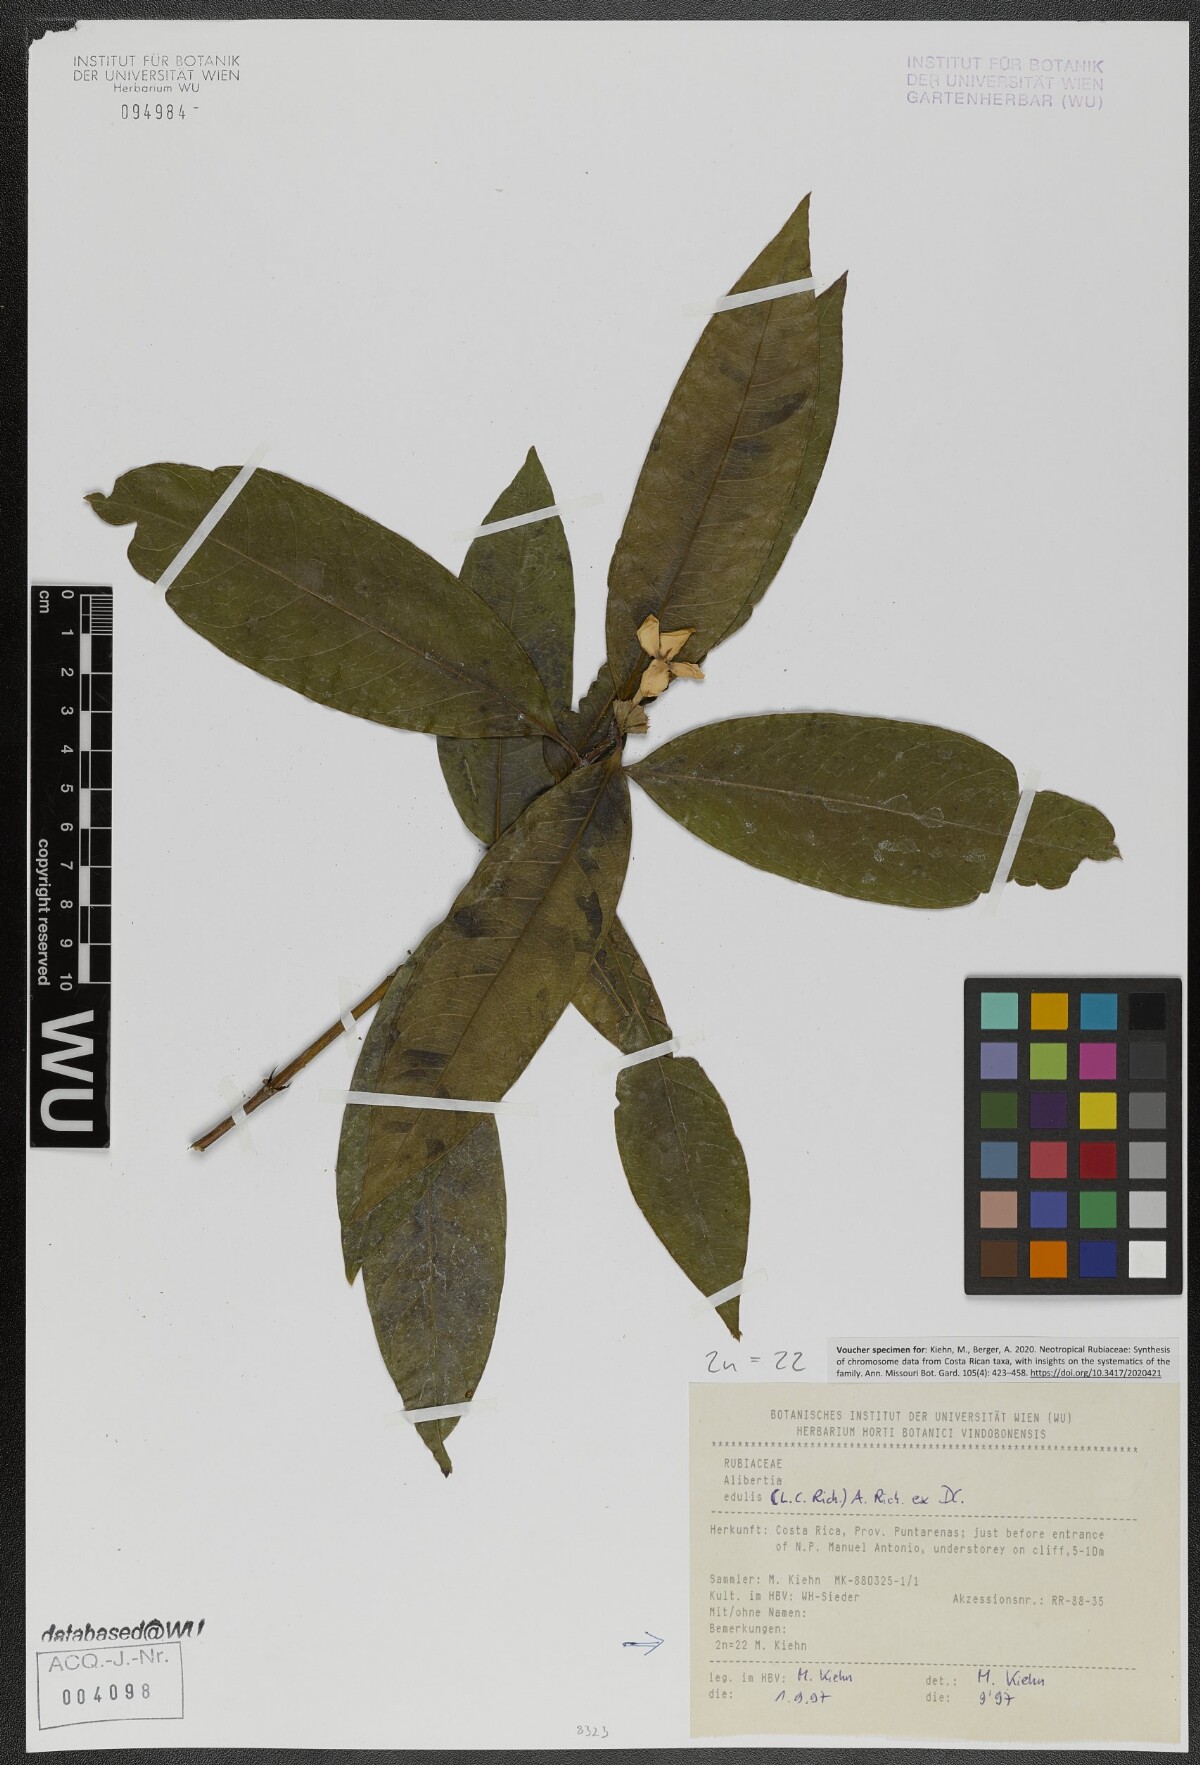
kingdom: Plantae
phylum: Tracheophyta
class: Magnoliopsida
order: Gentianales
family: Rubiaceae
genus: Alibertia
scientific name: Alibertia edulis
